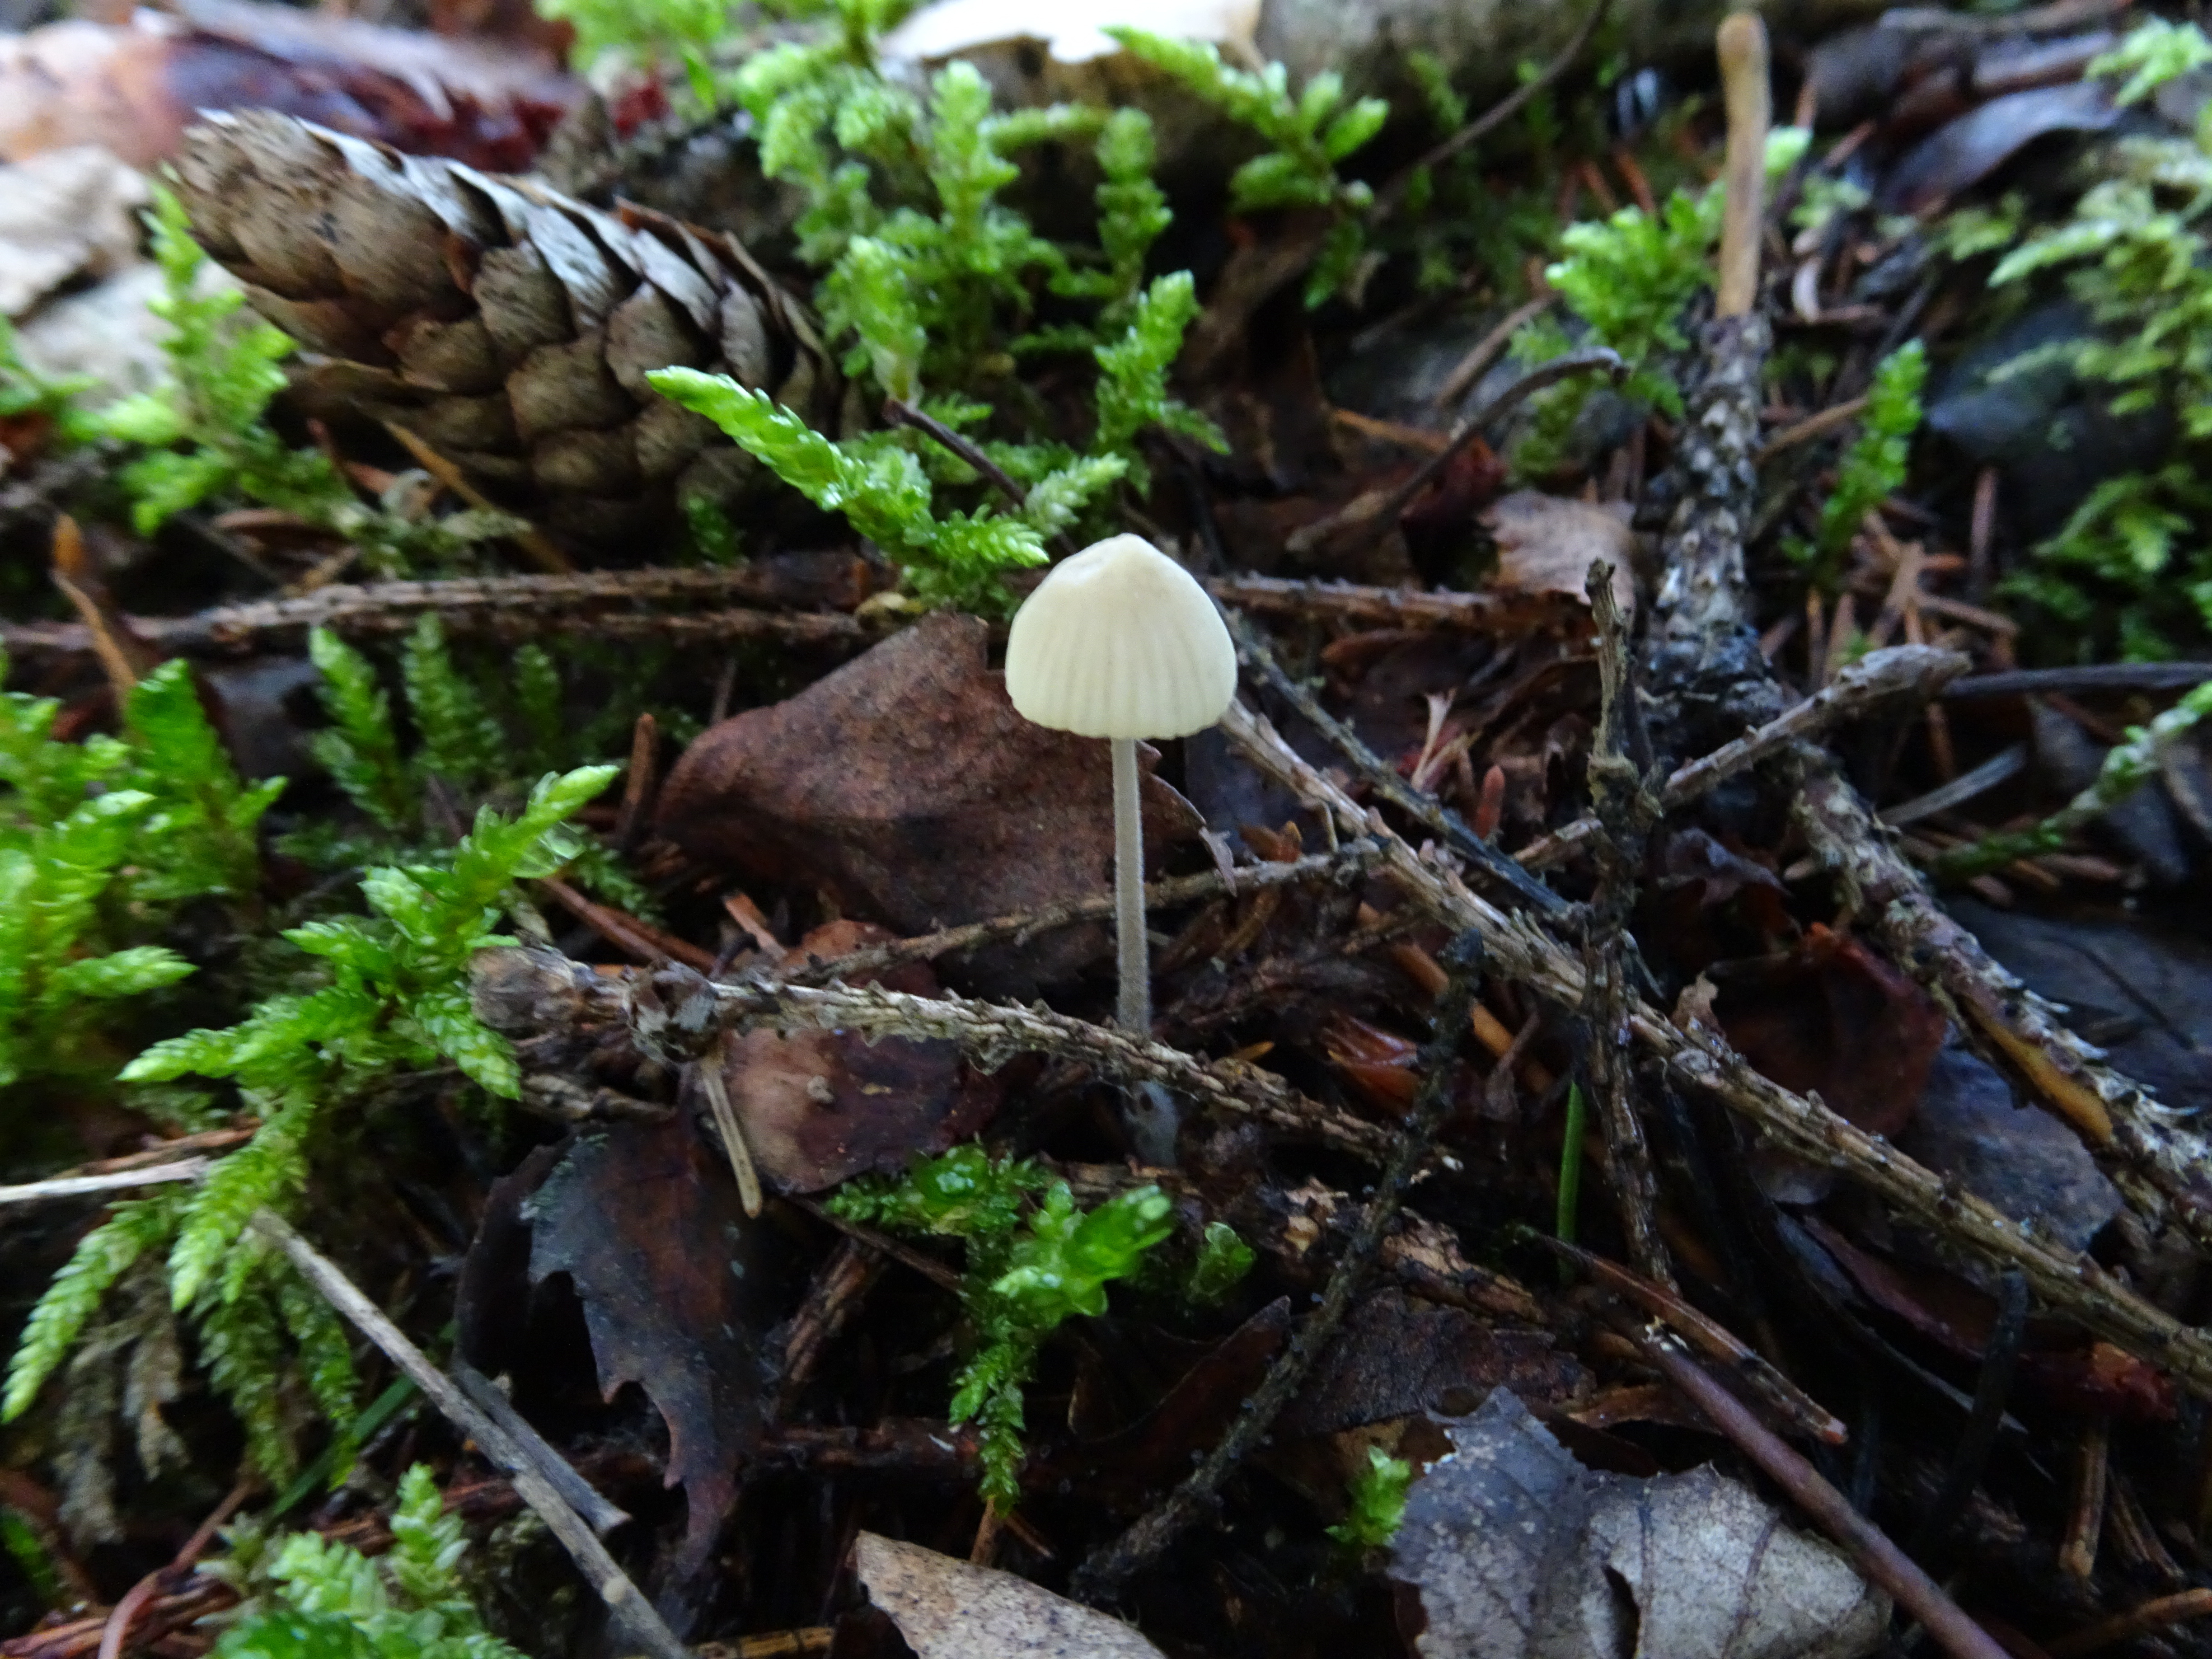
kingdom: Fungi
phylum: Basidiomycota
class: Agaricomycetes
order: Agaricales
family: Mycenaceae
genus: Mycena
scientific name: Mycena citrinomarginata
